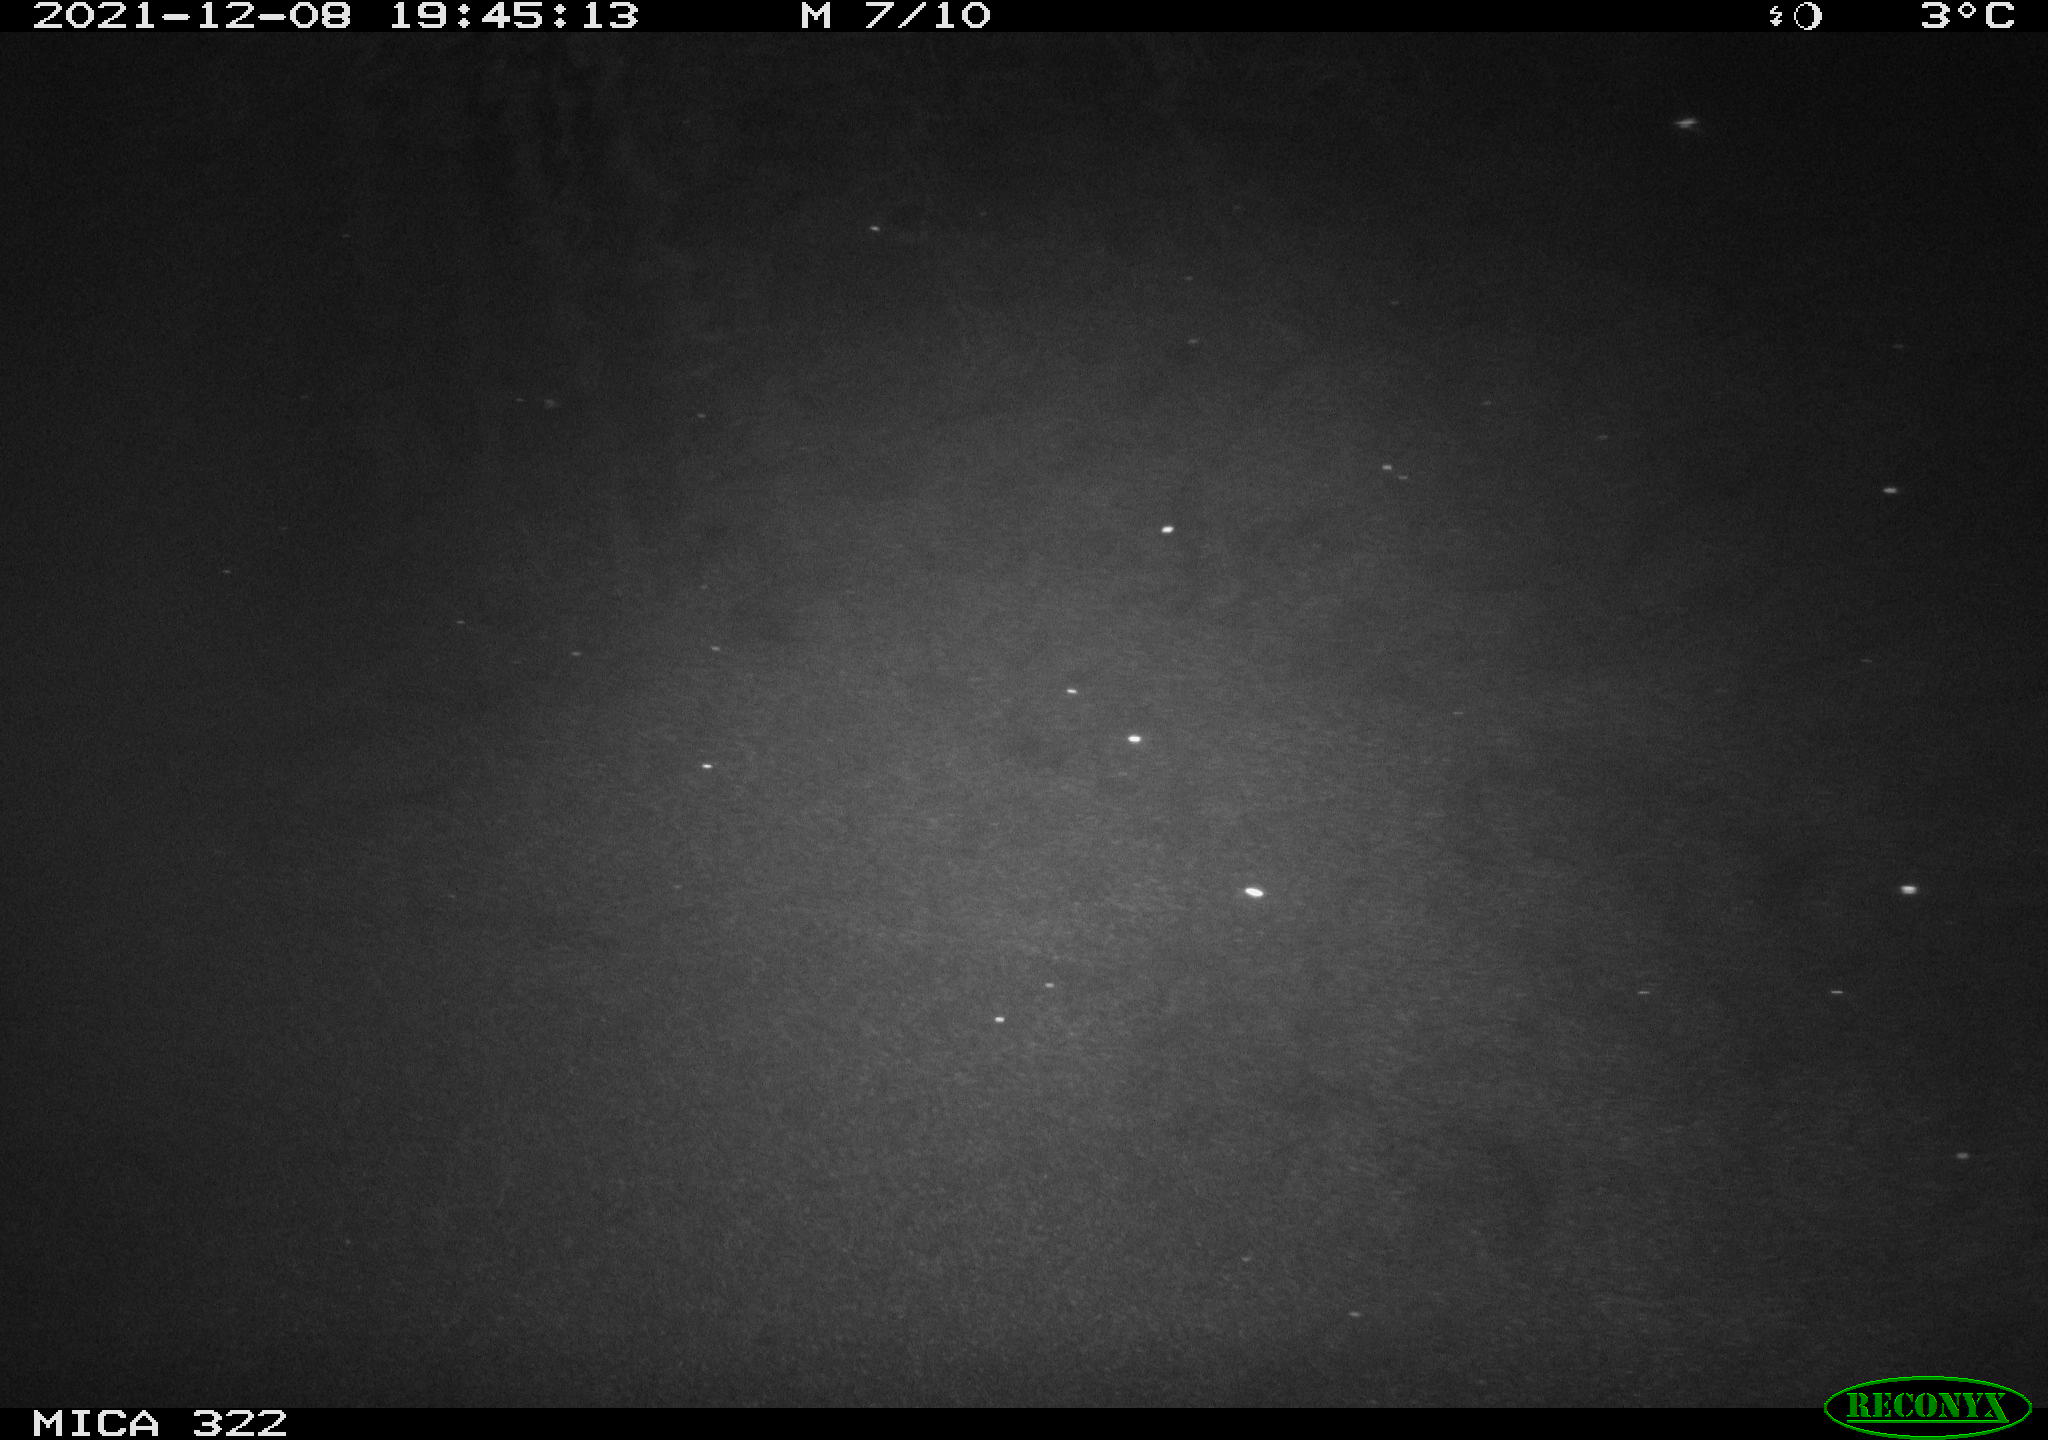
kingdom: Animalia
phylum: Chordata
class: Mammalia
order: Rodentia
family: Muridae
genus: Rattus
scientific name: Rattus norvegicus
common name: Brown rat
